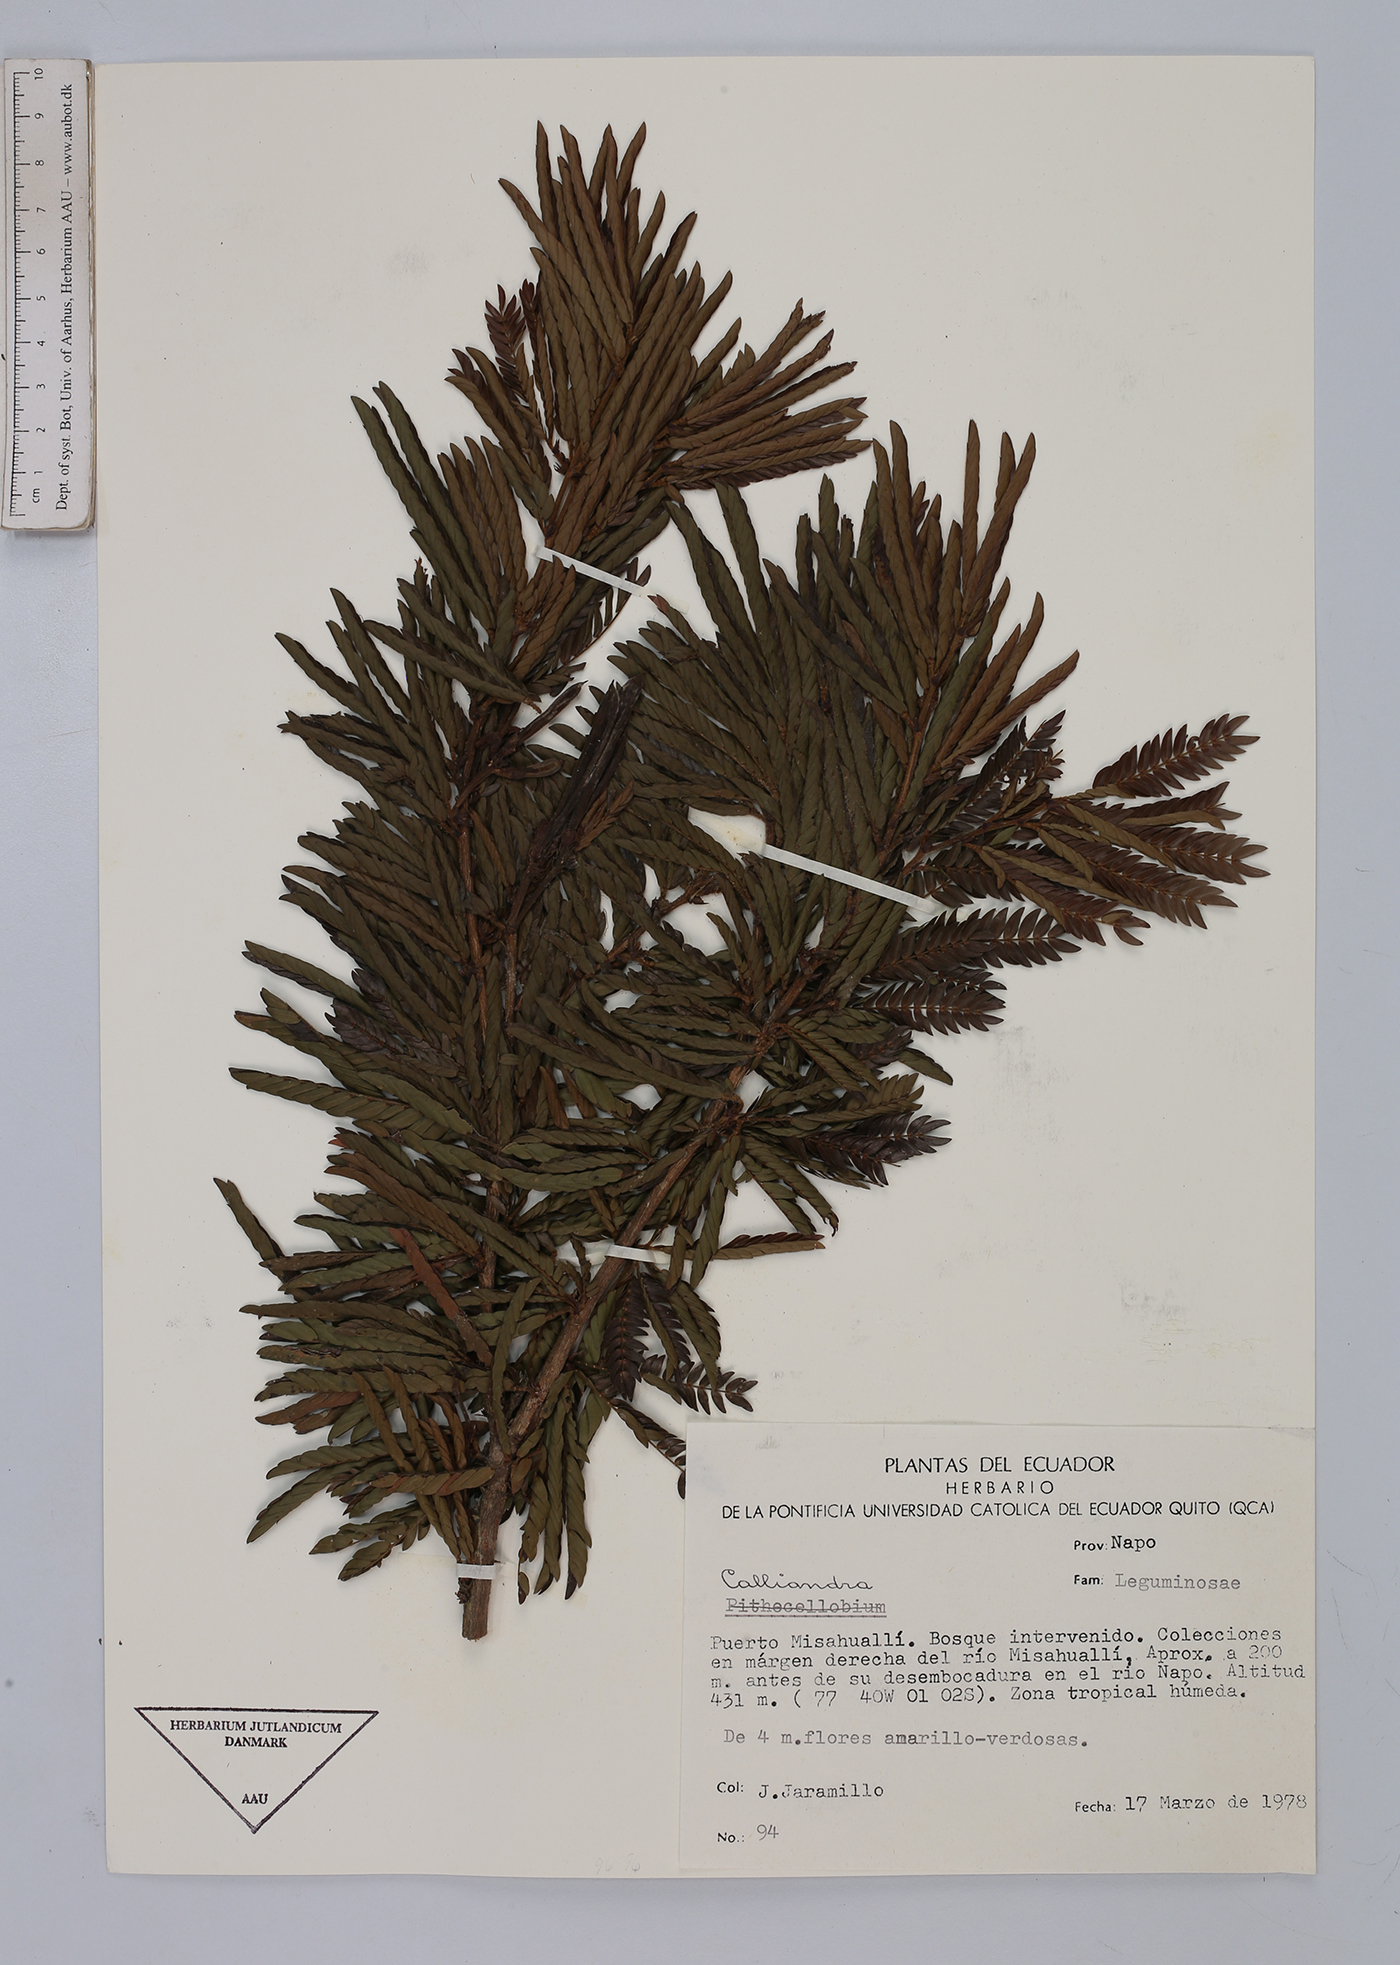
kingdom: Plantae
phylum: Tracheophyta
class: Magnoliopsida
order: Fabales
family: Fabaceae
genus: Calliandra
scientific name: Calliandra
